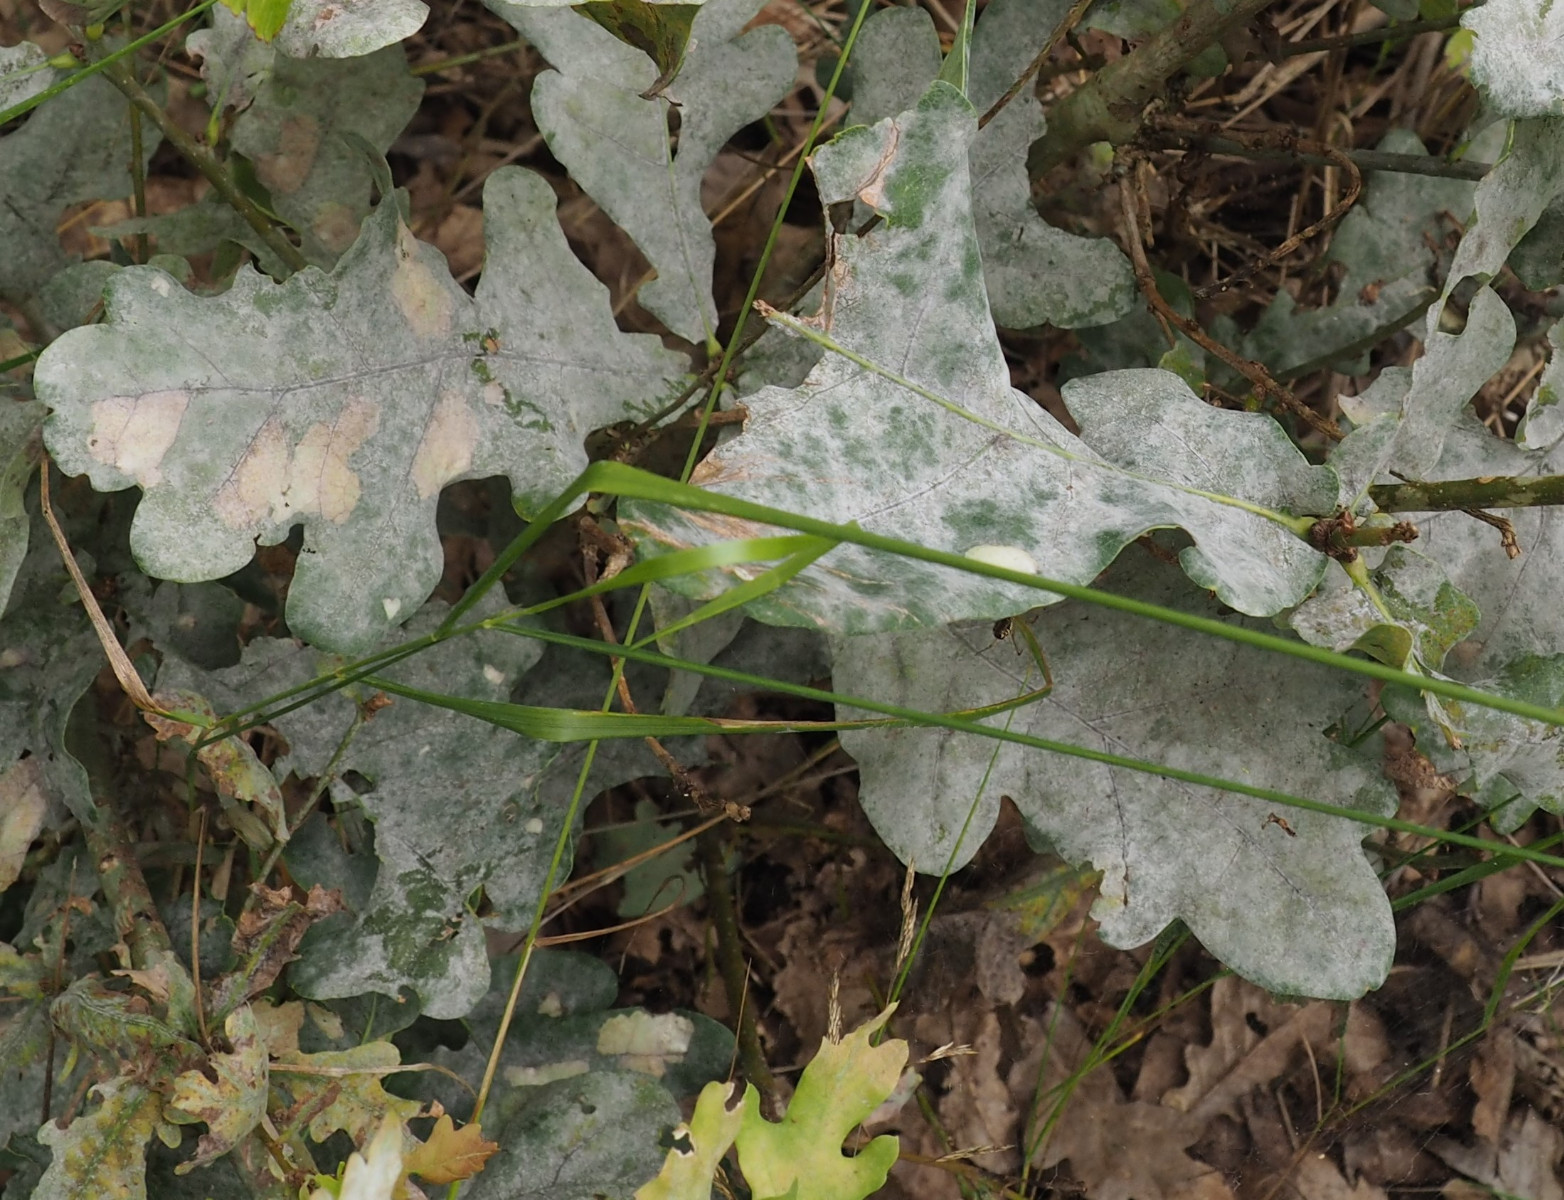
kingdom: Fungi
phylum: Ascomycota
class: Leotiomycetes
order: Helotiales
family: Erysiphaceae
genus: Erysiphe
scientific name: Erysiphe alphitoides
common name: ege-meldug
